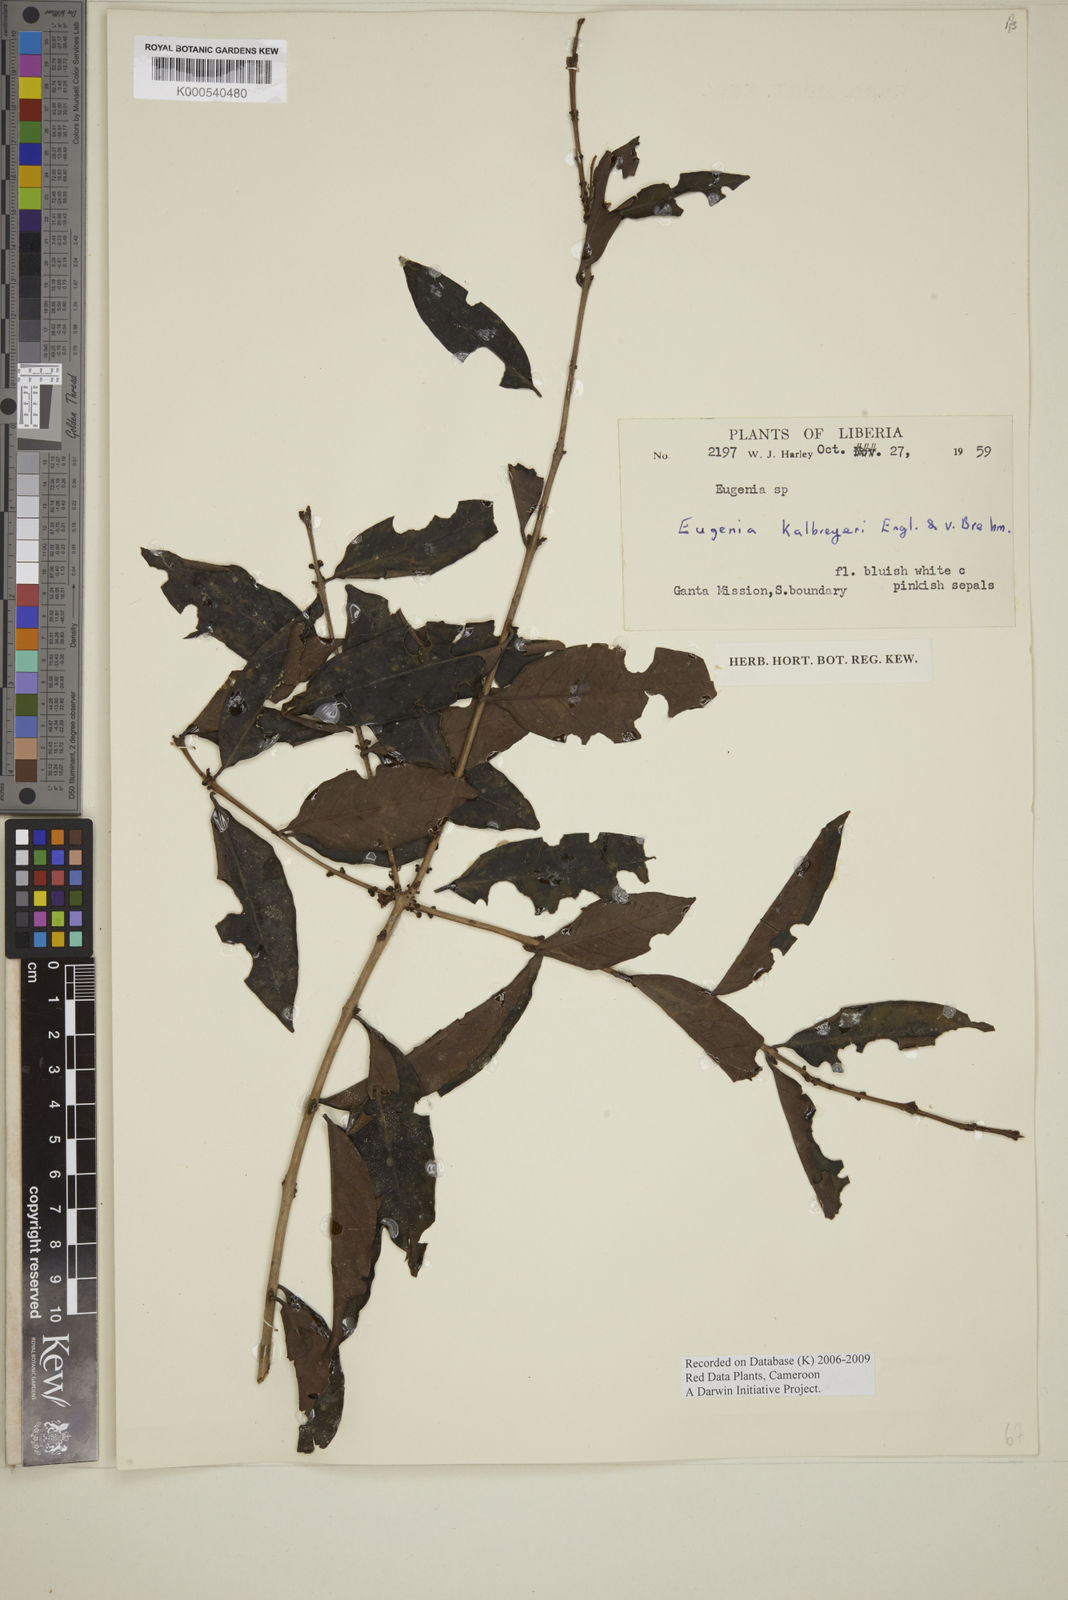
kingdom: Plantae
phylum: Tracheophyta
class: Magnoliopsida
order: Myrtales
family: Myrtaceae
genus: Eugenia
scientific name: Eugenia kalbreyeri
